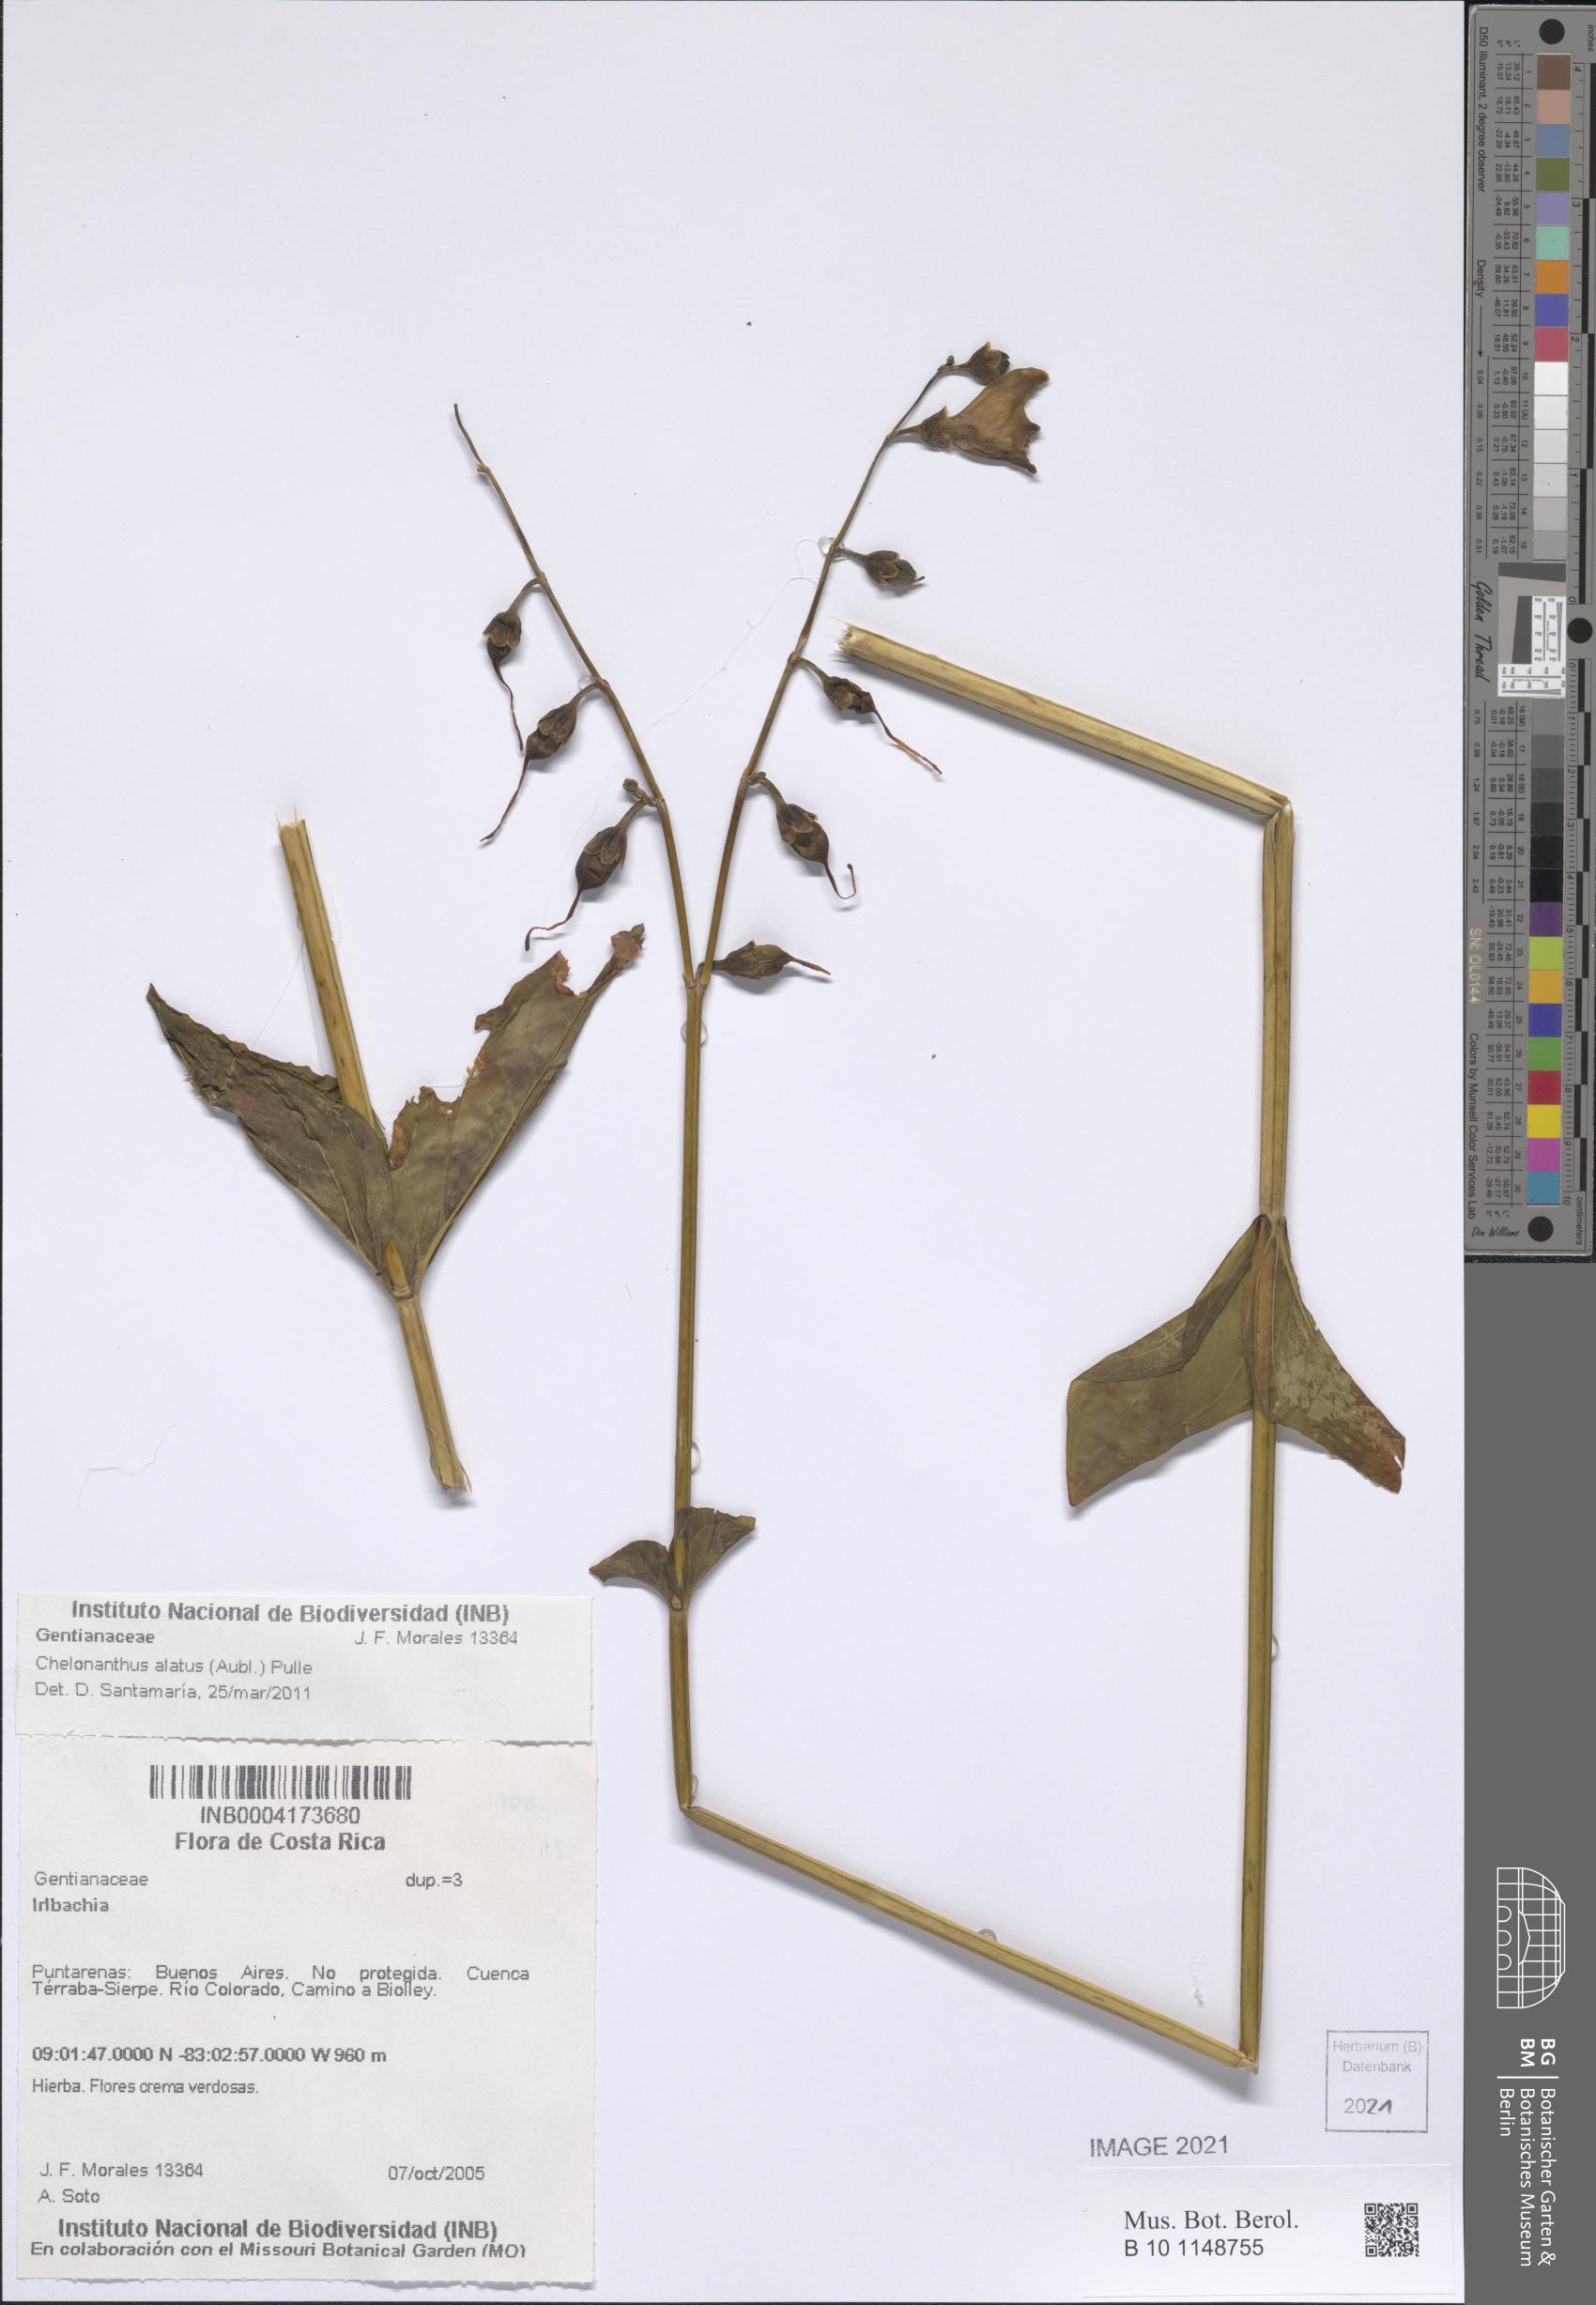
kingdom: Plantae
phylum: Tracheophyta
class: Magnoliopsida
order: Gentianales
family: Gentianaceae
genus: Irlbachia
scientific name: Irlbachia
